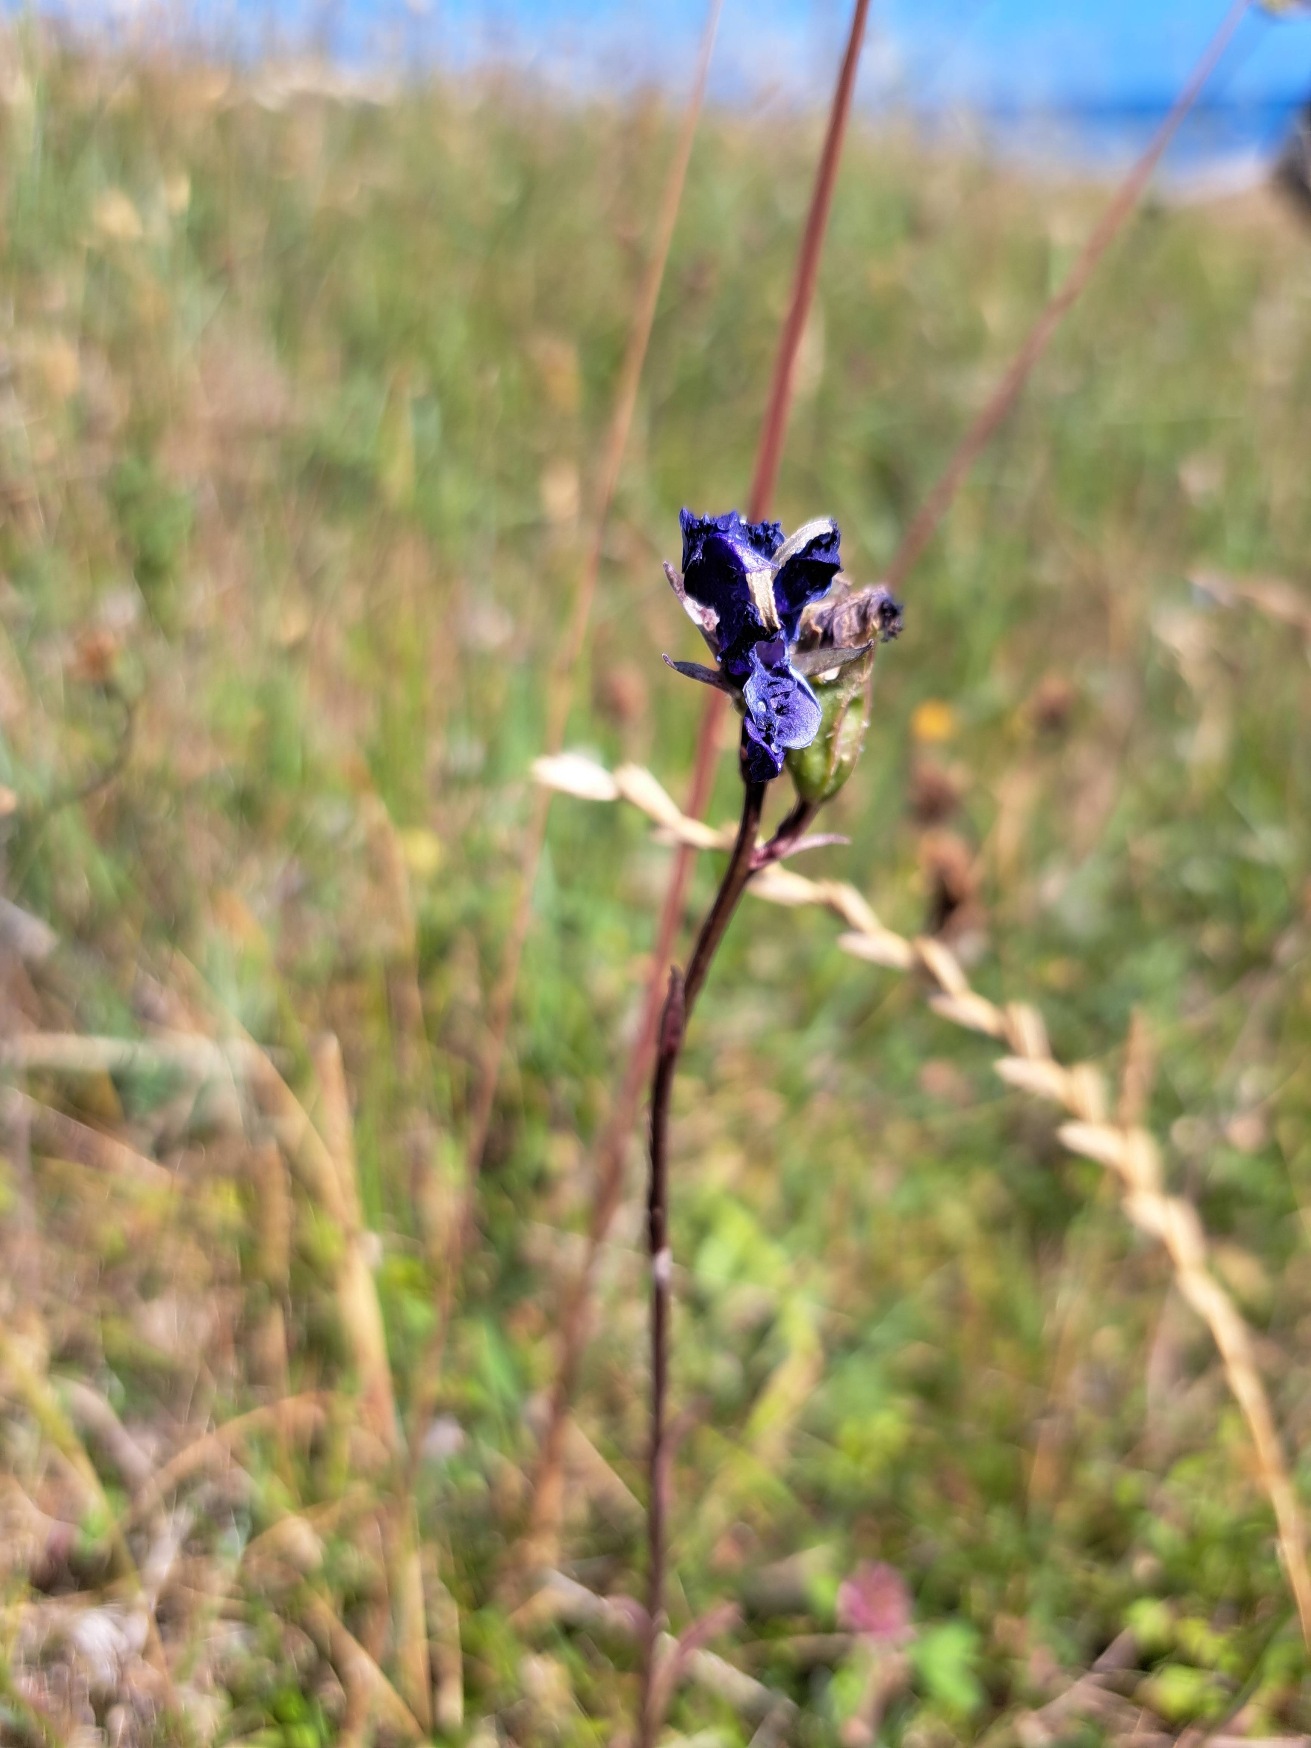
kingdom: Plantae
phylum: Tracheophyta
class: Magnoliopsida
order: Asterales
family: Campanulaceae
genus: Campanula
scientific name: Campanula persicifolia
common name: Smalbladet klokke
